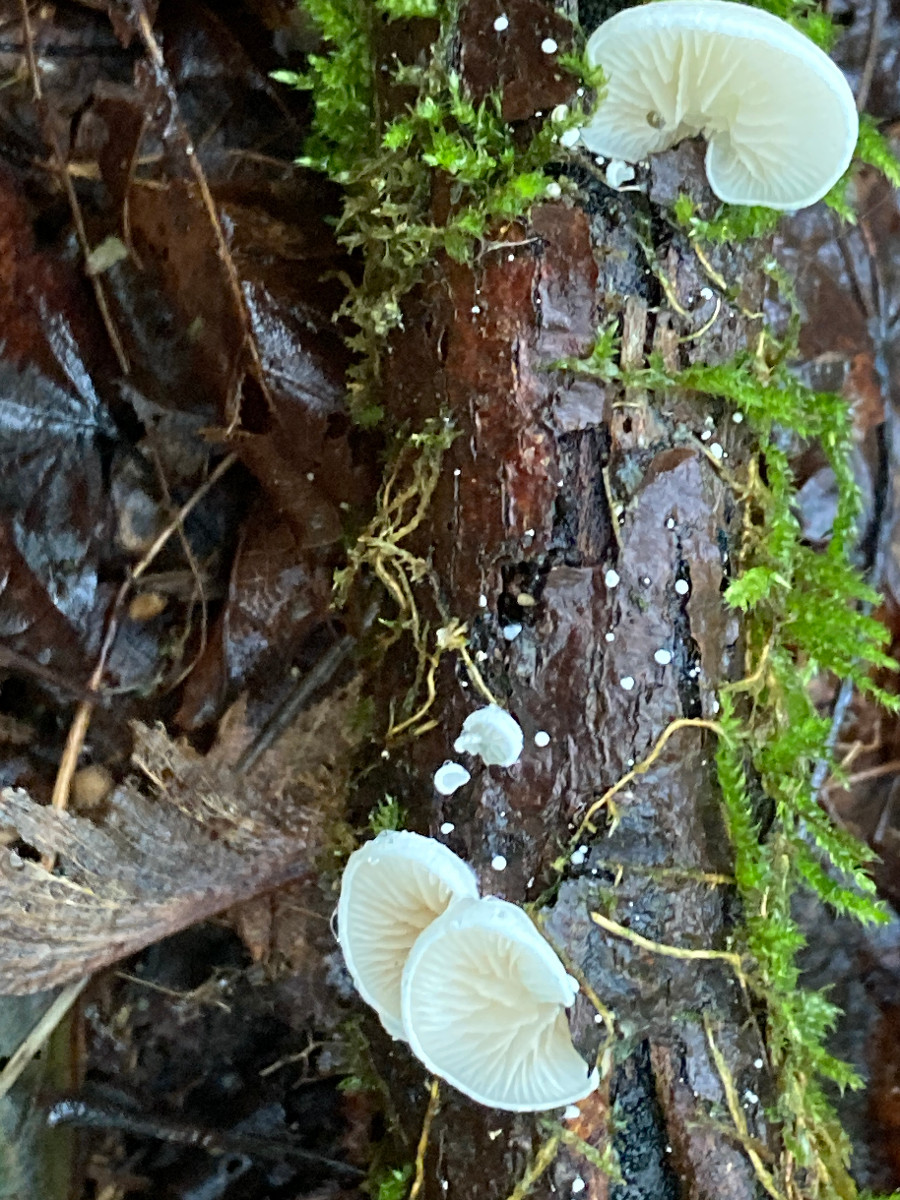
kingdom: Fungi
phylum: Basidiomycota
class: Agaricomycetes
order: Agaricales
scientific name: Agaricales
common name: champignonordenen
